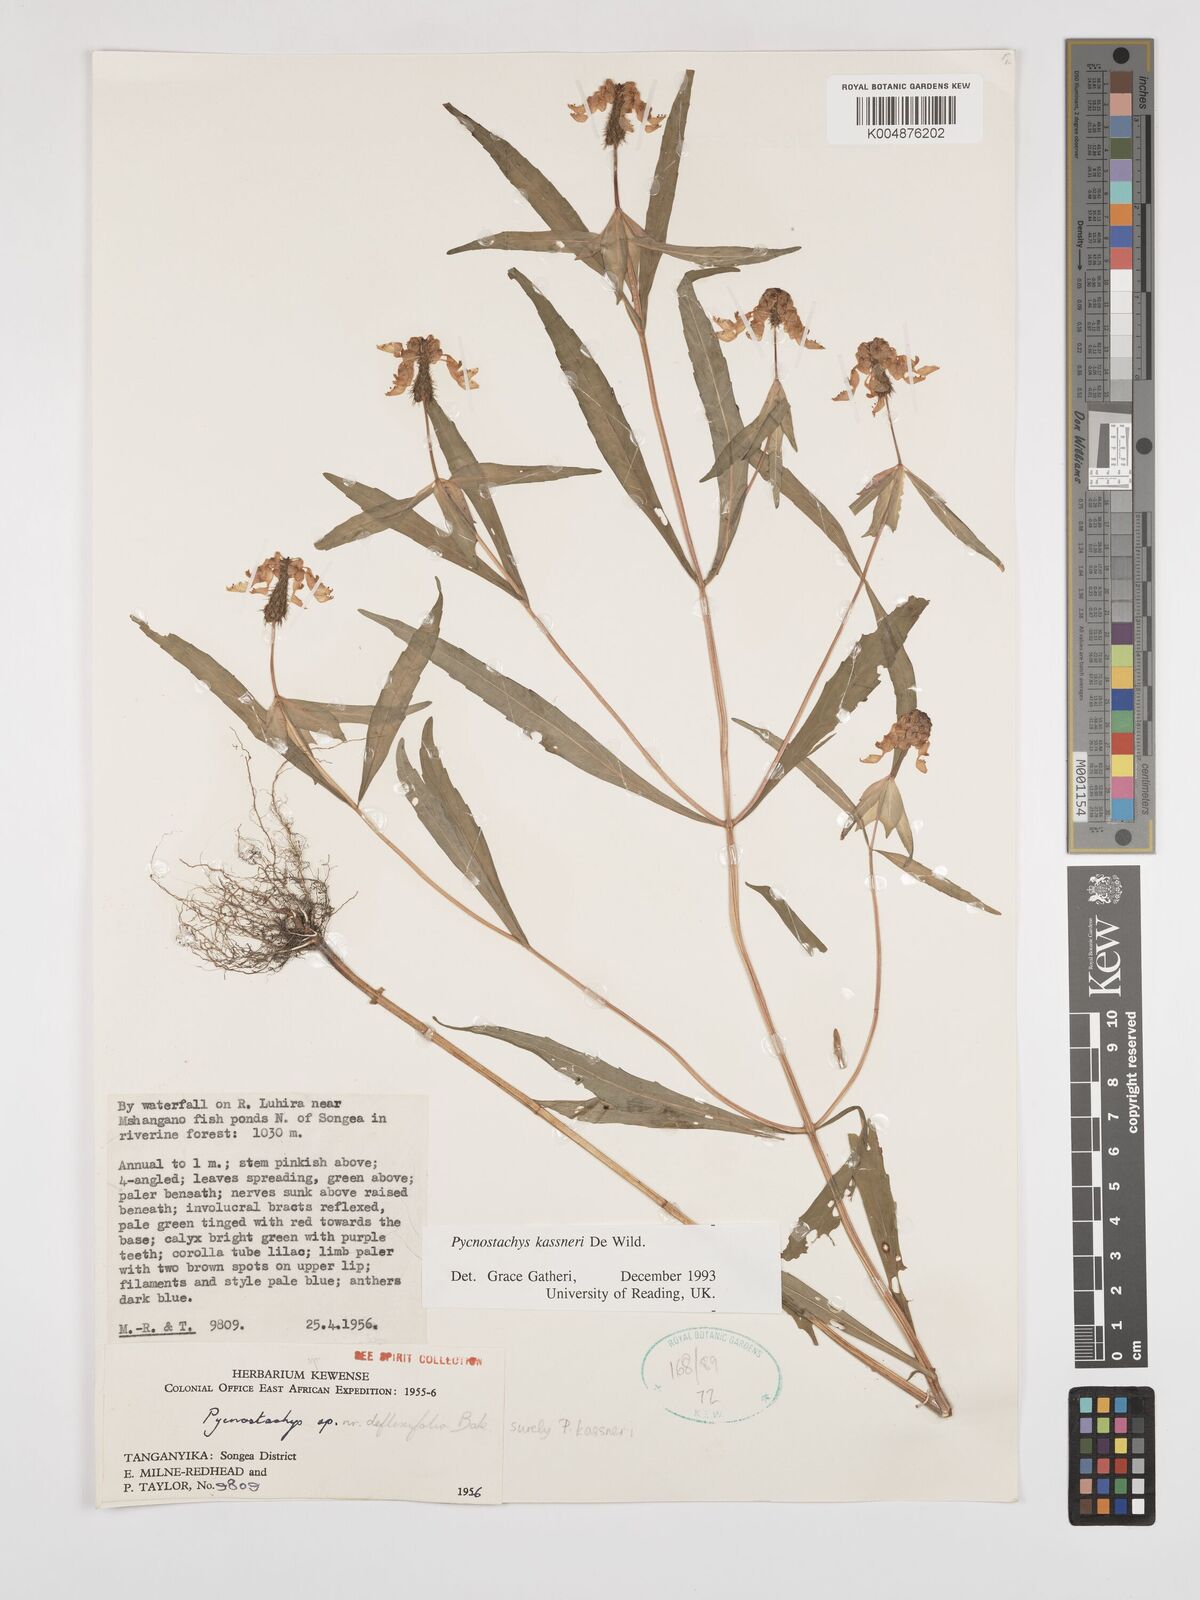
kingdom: Plantae
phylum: Tracheophyta
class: Magnoliopsida
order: Lamiales
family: Lamiaceae
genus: Coleus
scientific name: Coleus scruposus
